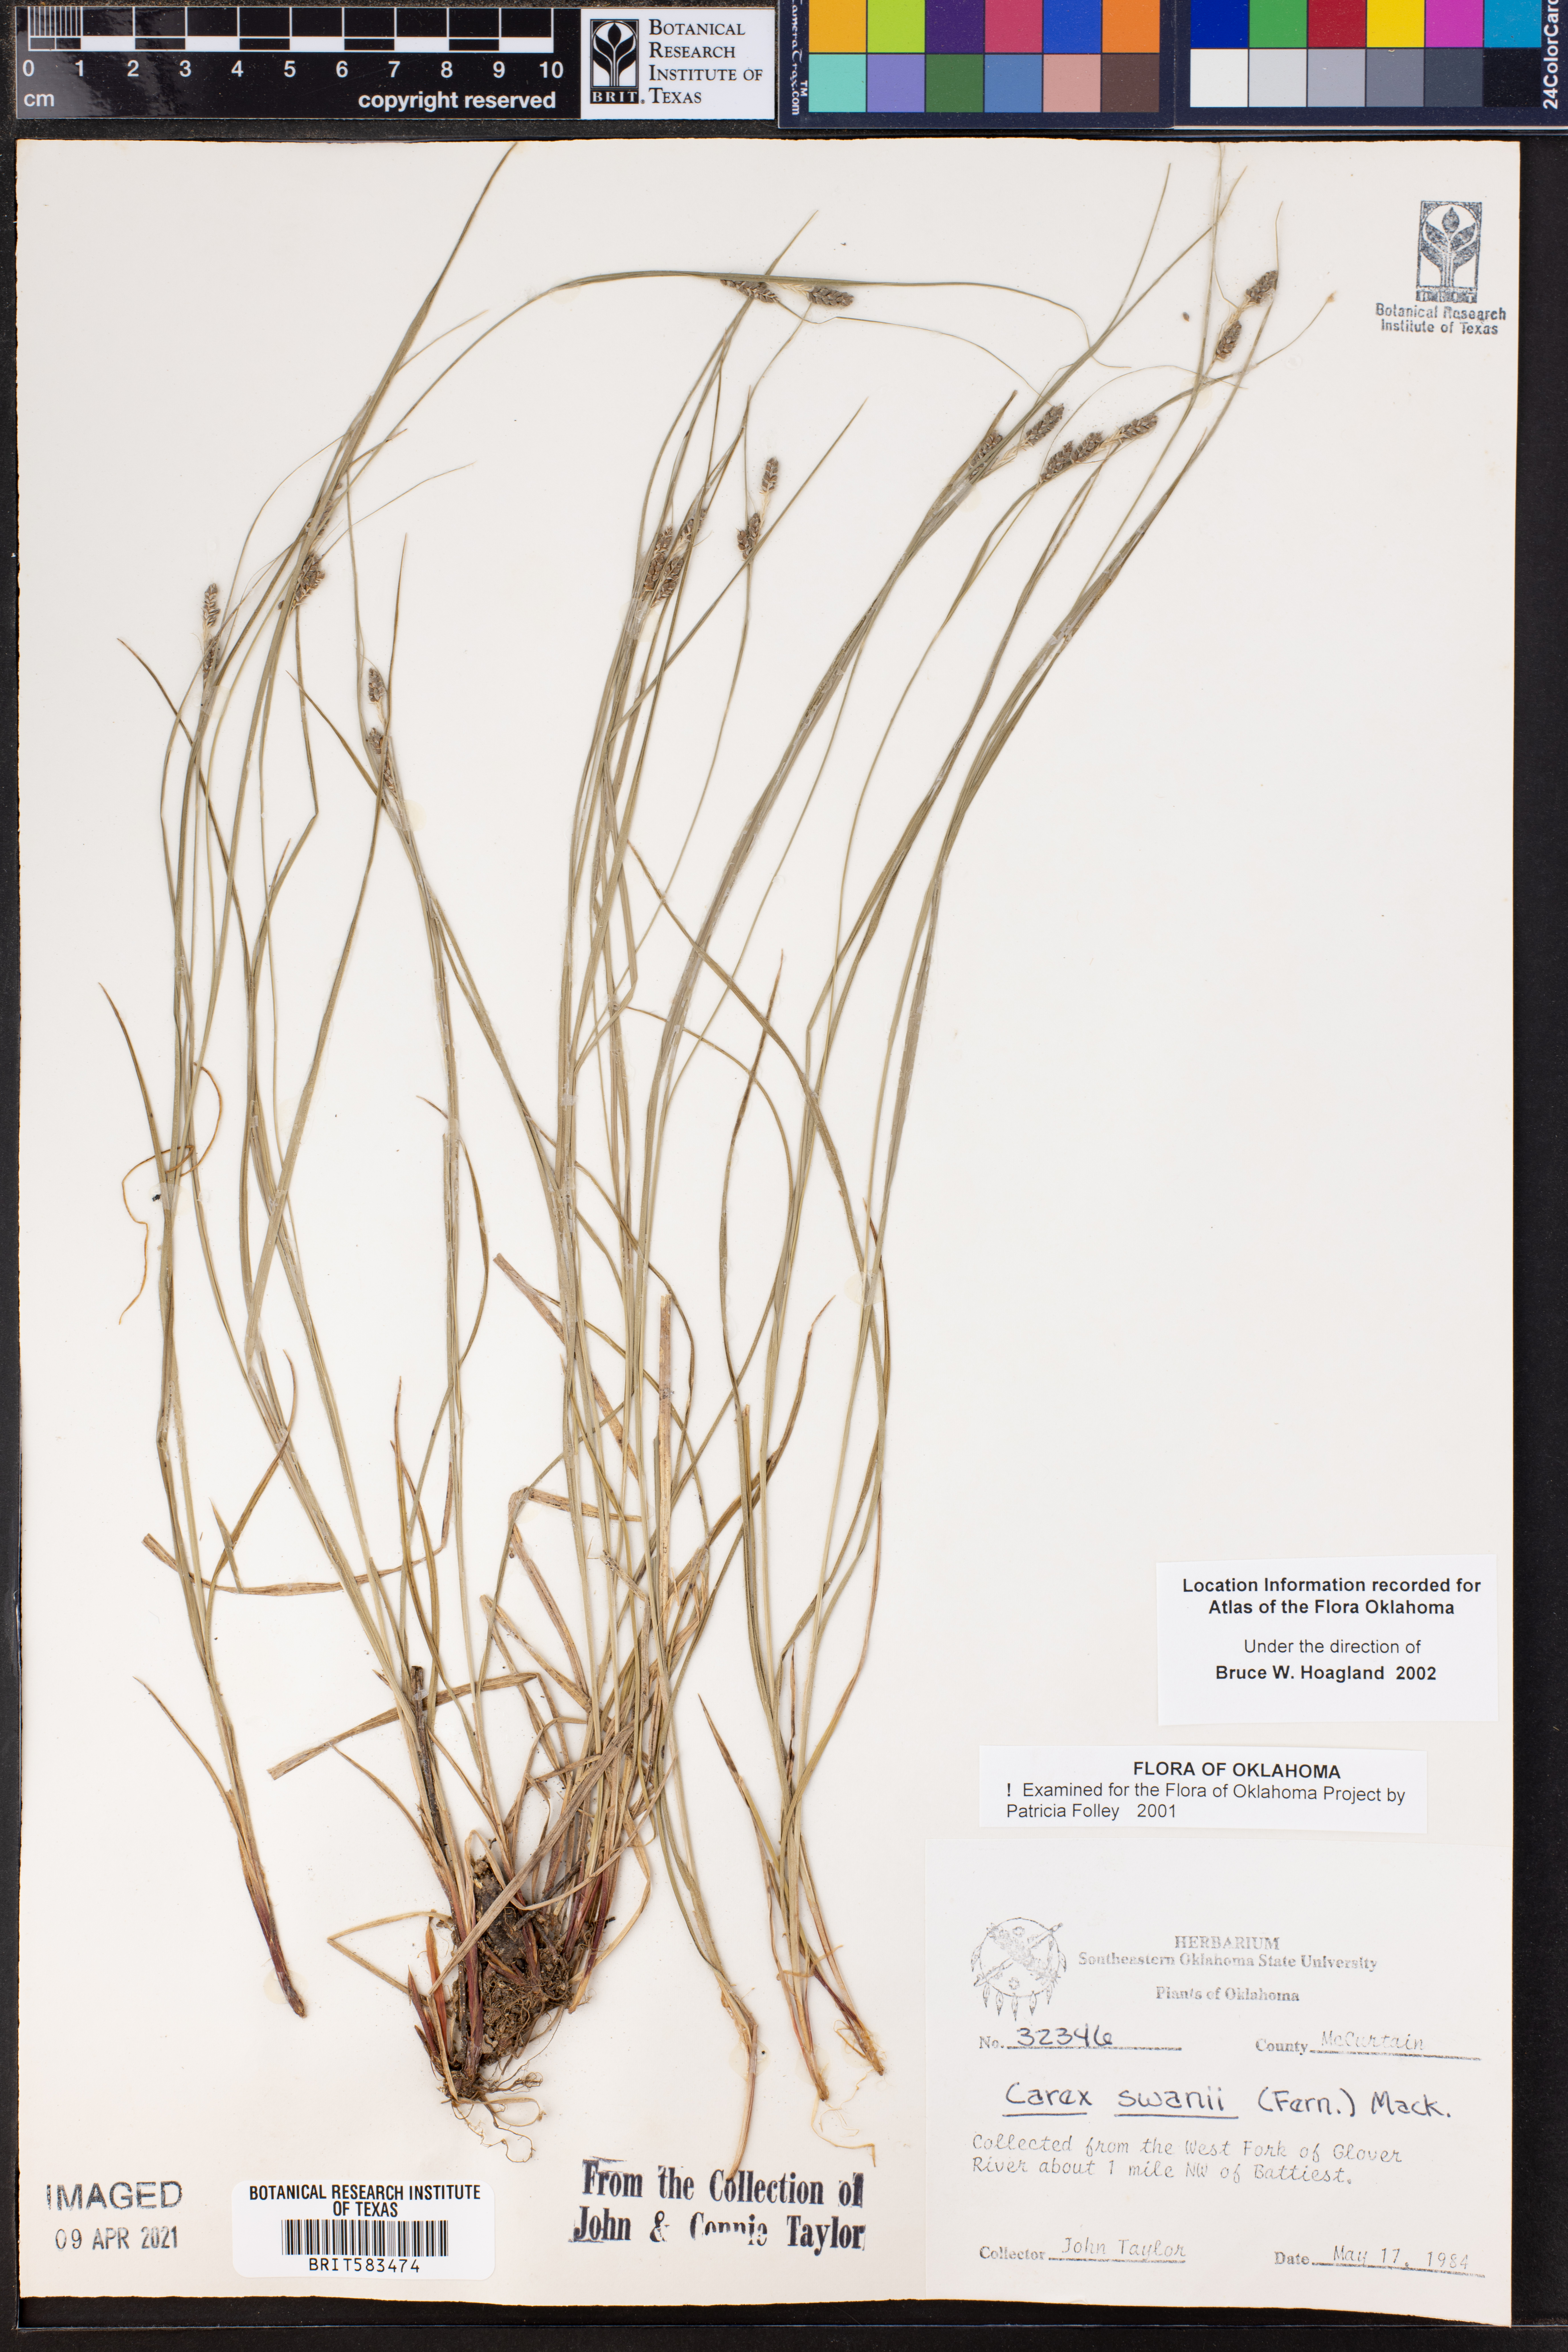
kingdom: Plantae
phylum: Tracheophyta
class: Liliopsida
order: Poales
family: Cyperaceae
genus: Carex
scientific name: Carex swanii
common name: Downy green sedge
